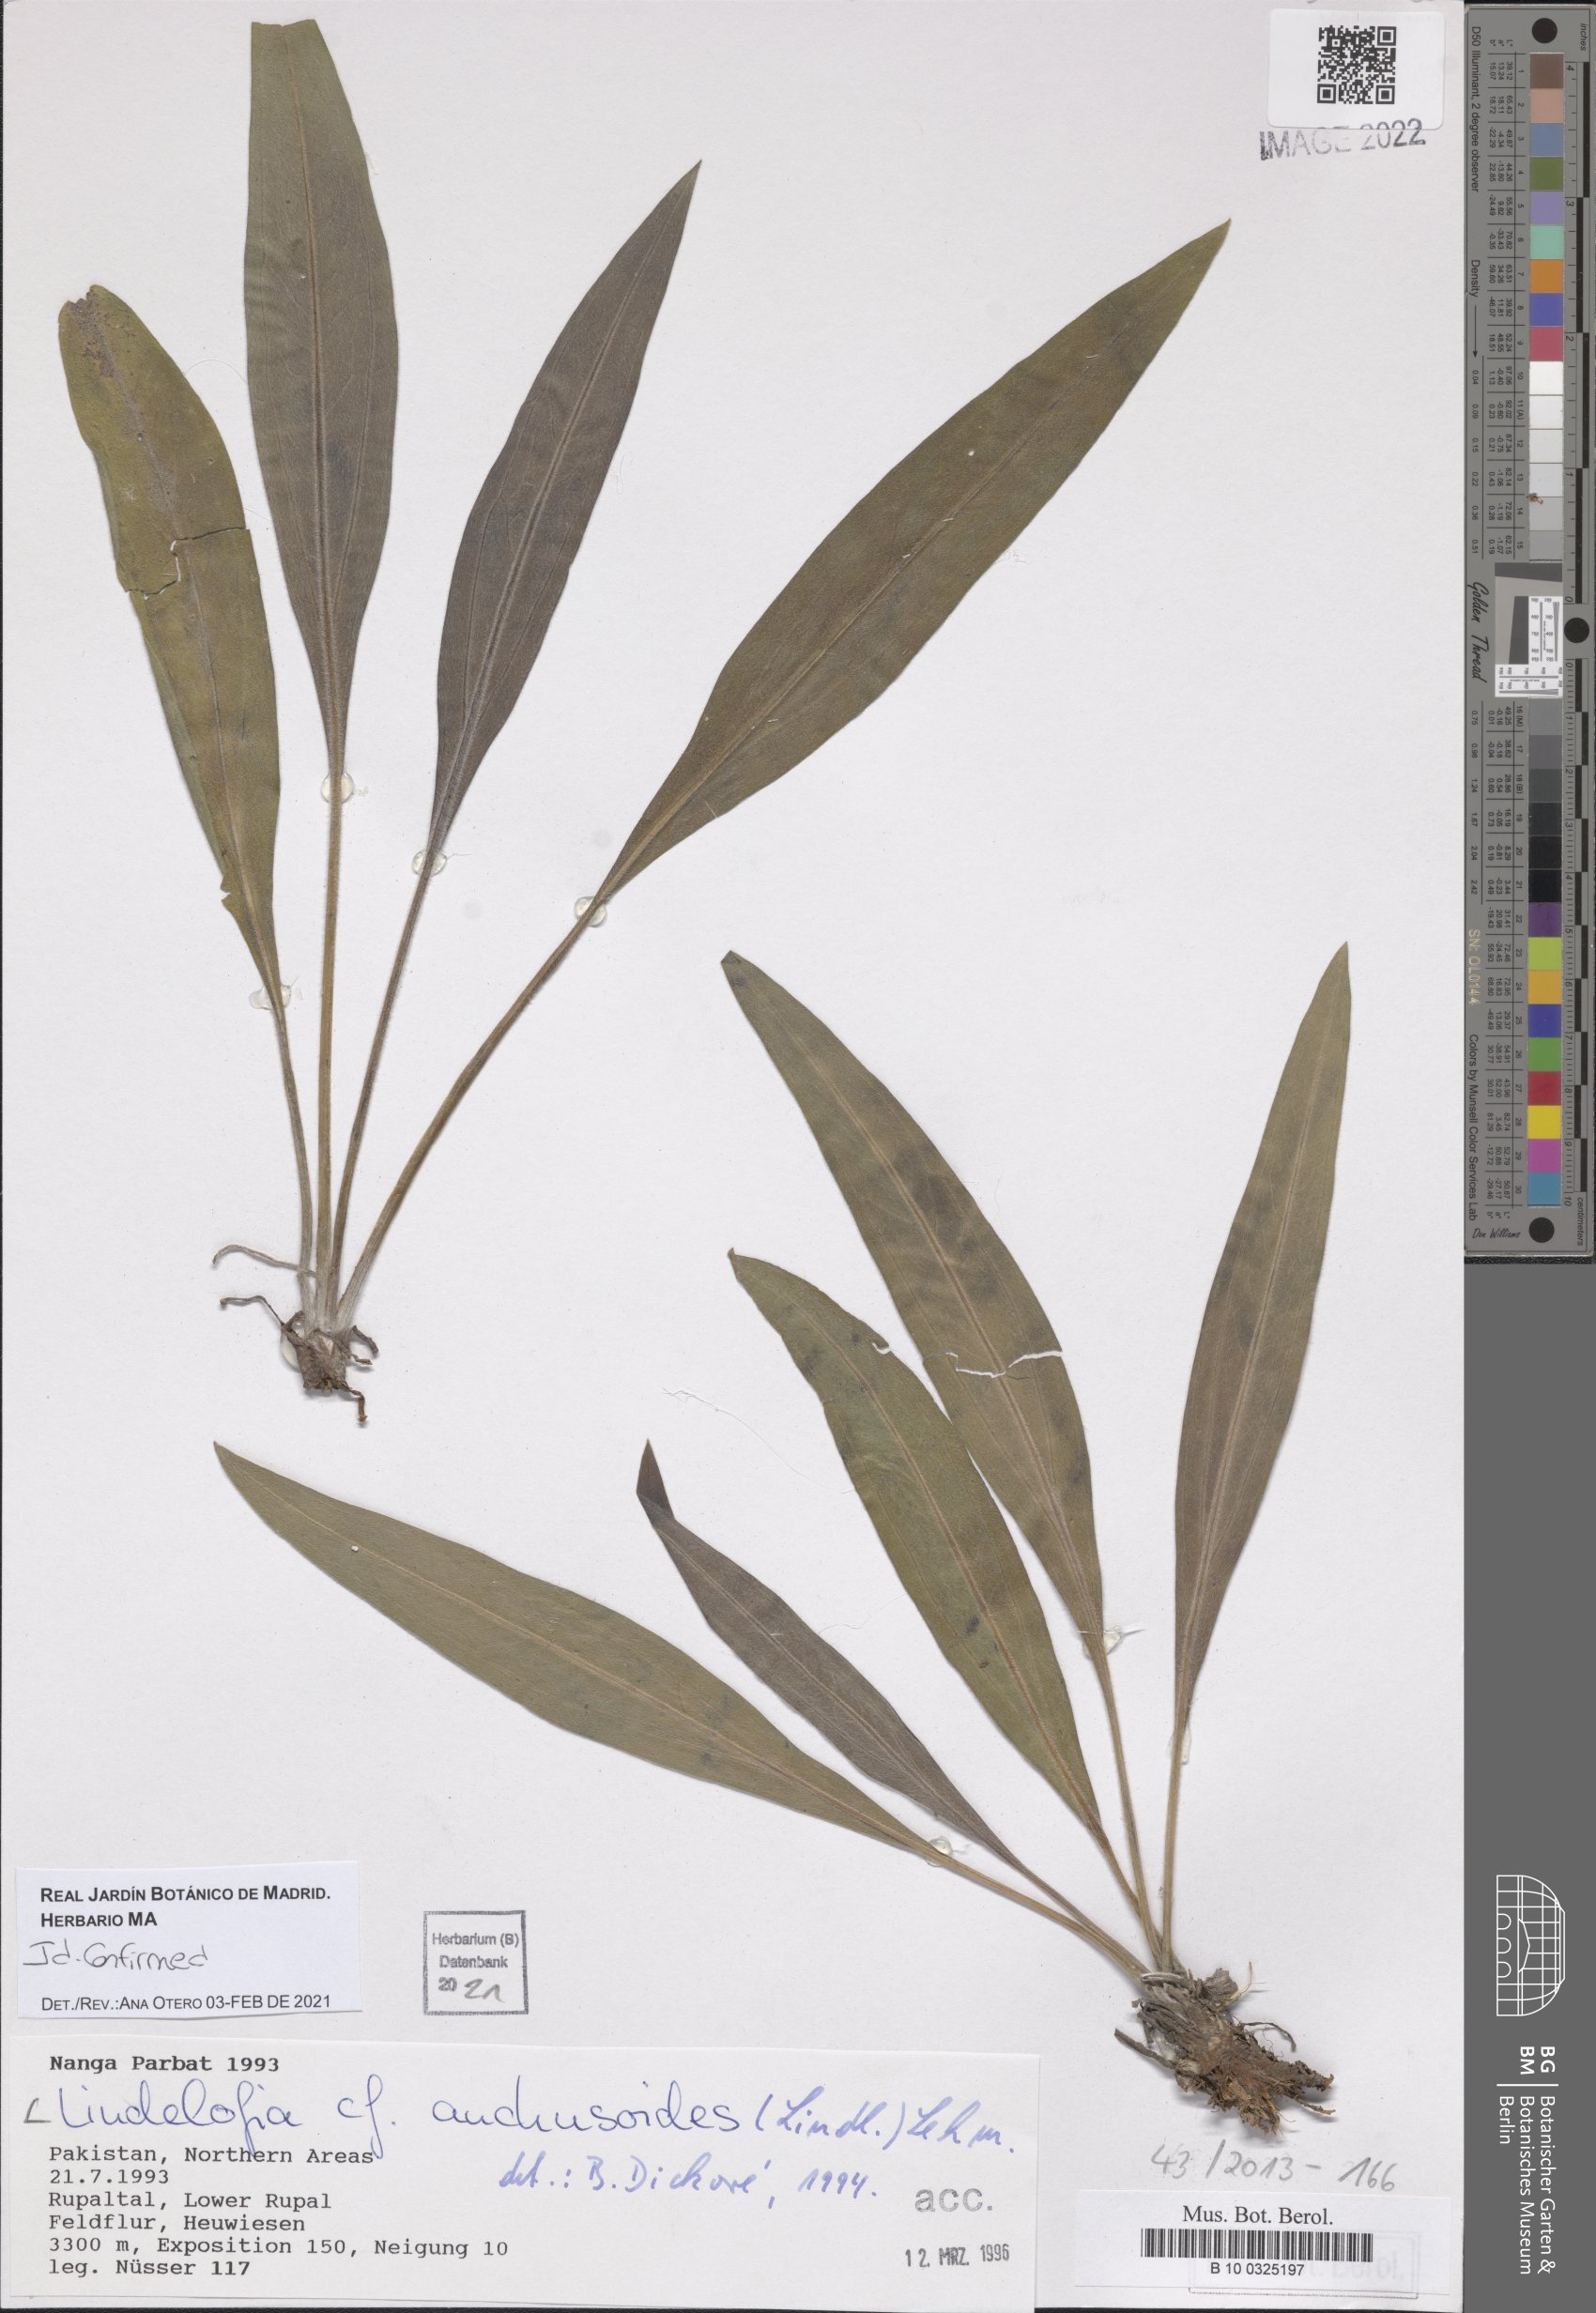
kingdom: Plantae
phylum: Tracheophyta
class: Magnoliopsida
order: Boraginales
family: Boraginaceae
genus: Lindelofia
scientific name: Lindelofia anchusoides
